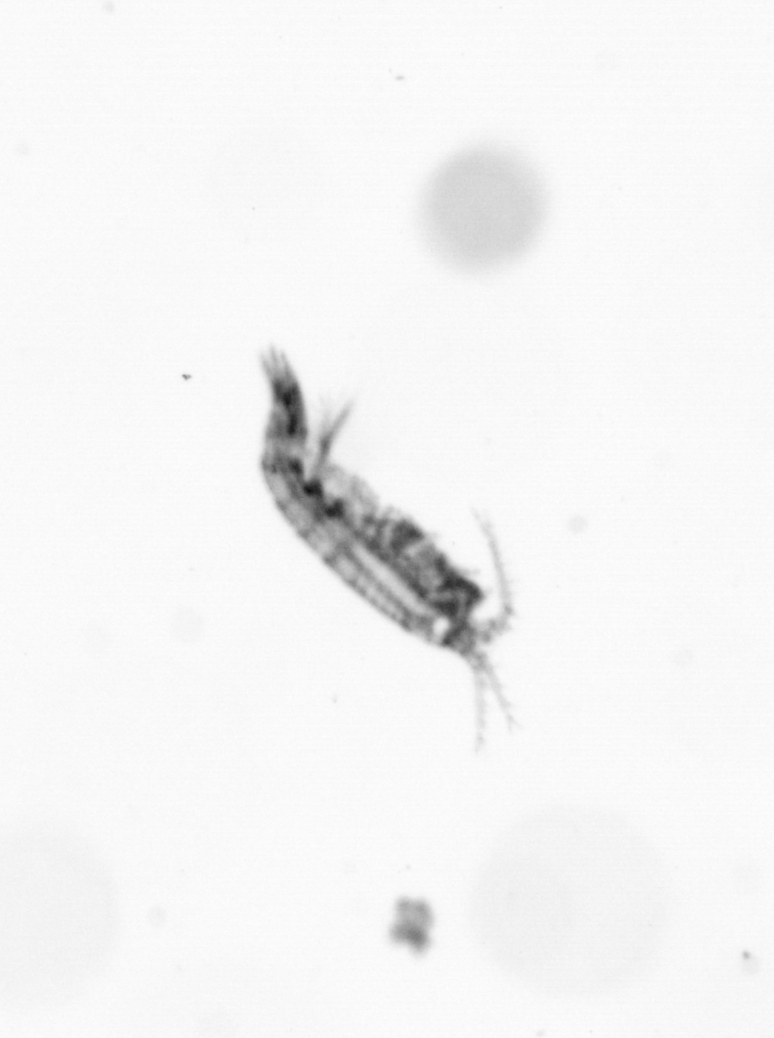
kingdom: Animalia
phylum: Arthropoda
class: Copepoda
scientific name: Copepoda
